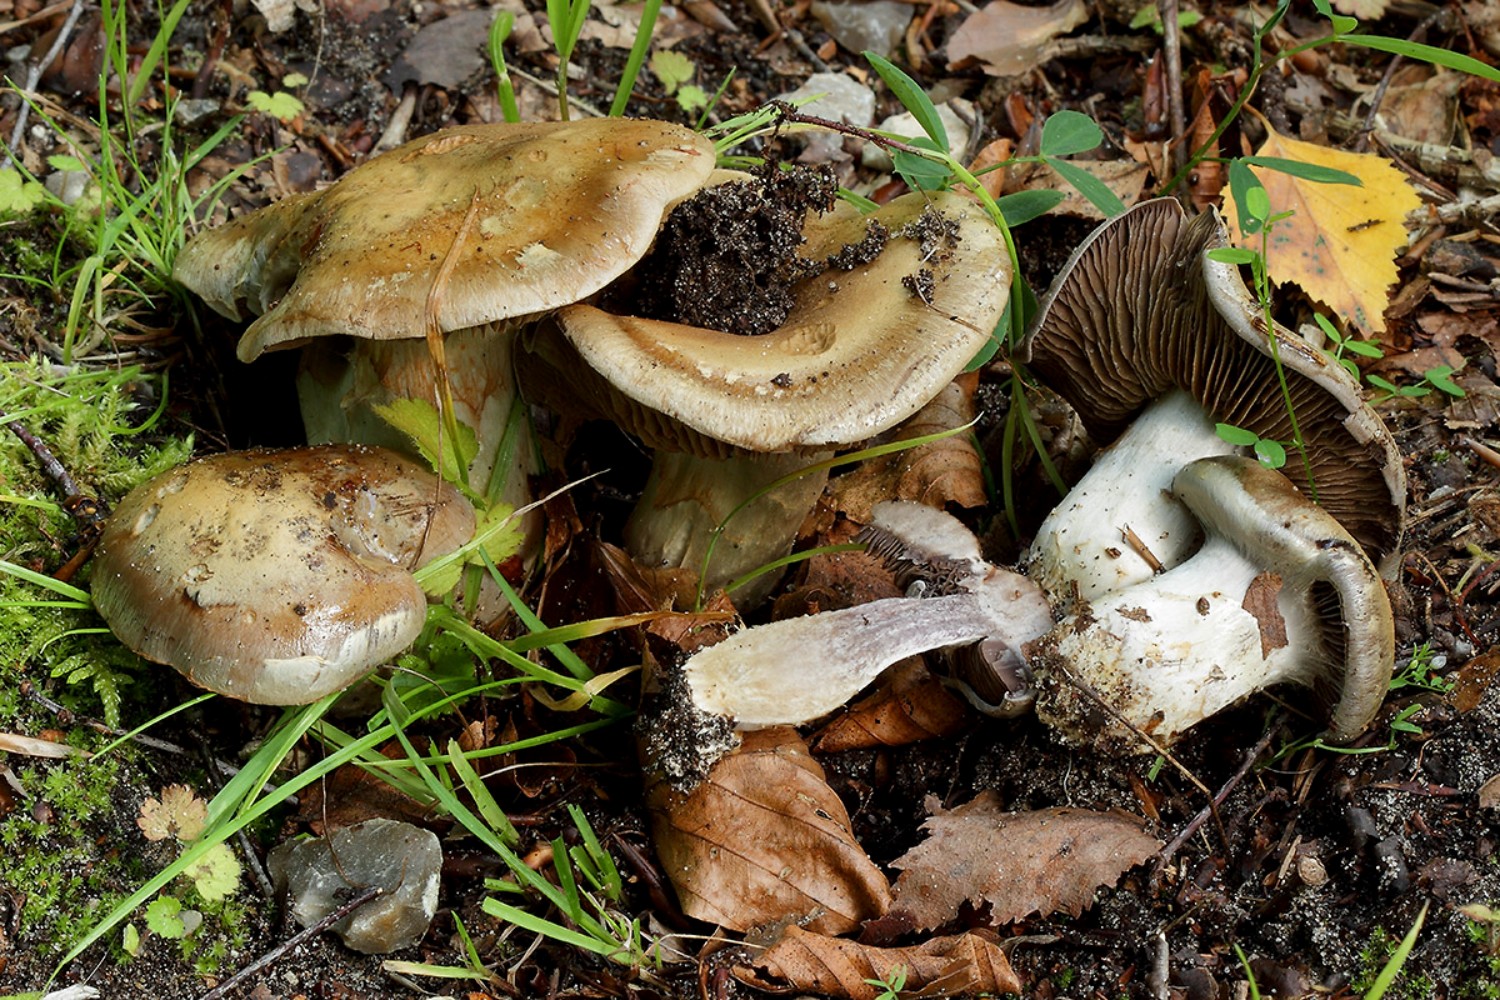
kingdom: Fungi
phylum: Basidiomycota
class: Agaricomycetes
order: Agaricales
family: Cortinariaceae
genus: Cortinarius
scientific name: Cortinarius
